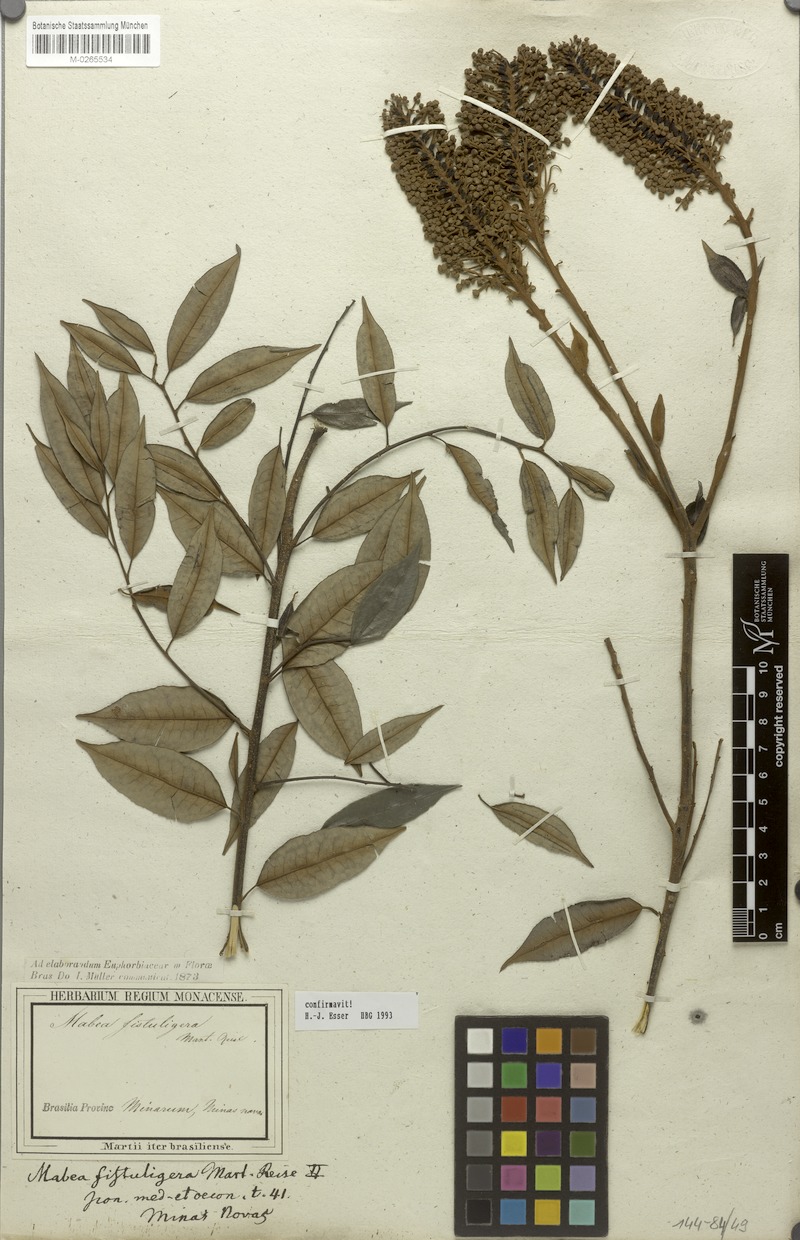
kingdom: Plantae
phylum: Tracheophyta
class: Magnoliopsida
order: Malpighiales
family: Euphorbiaceae
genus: Mabea
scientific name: Mabea fistulifera
